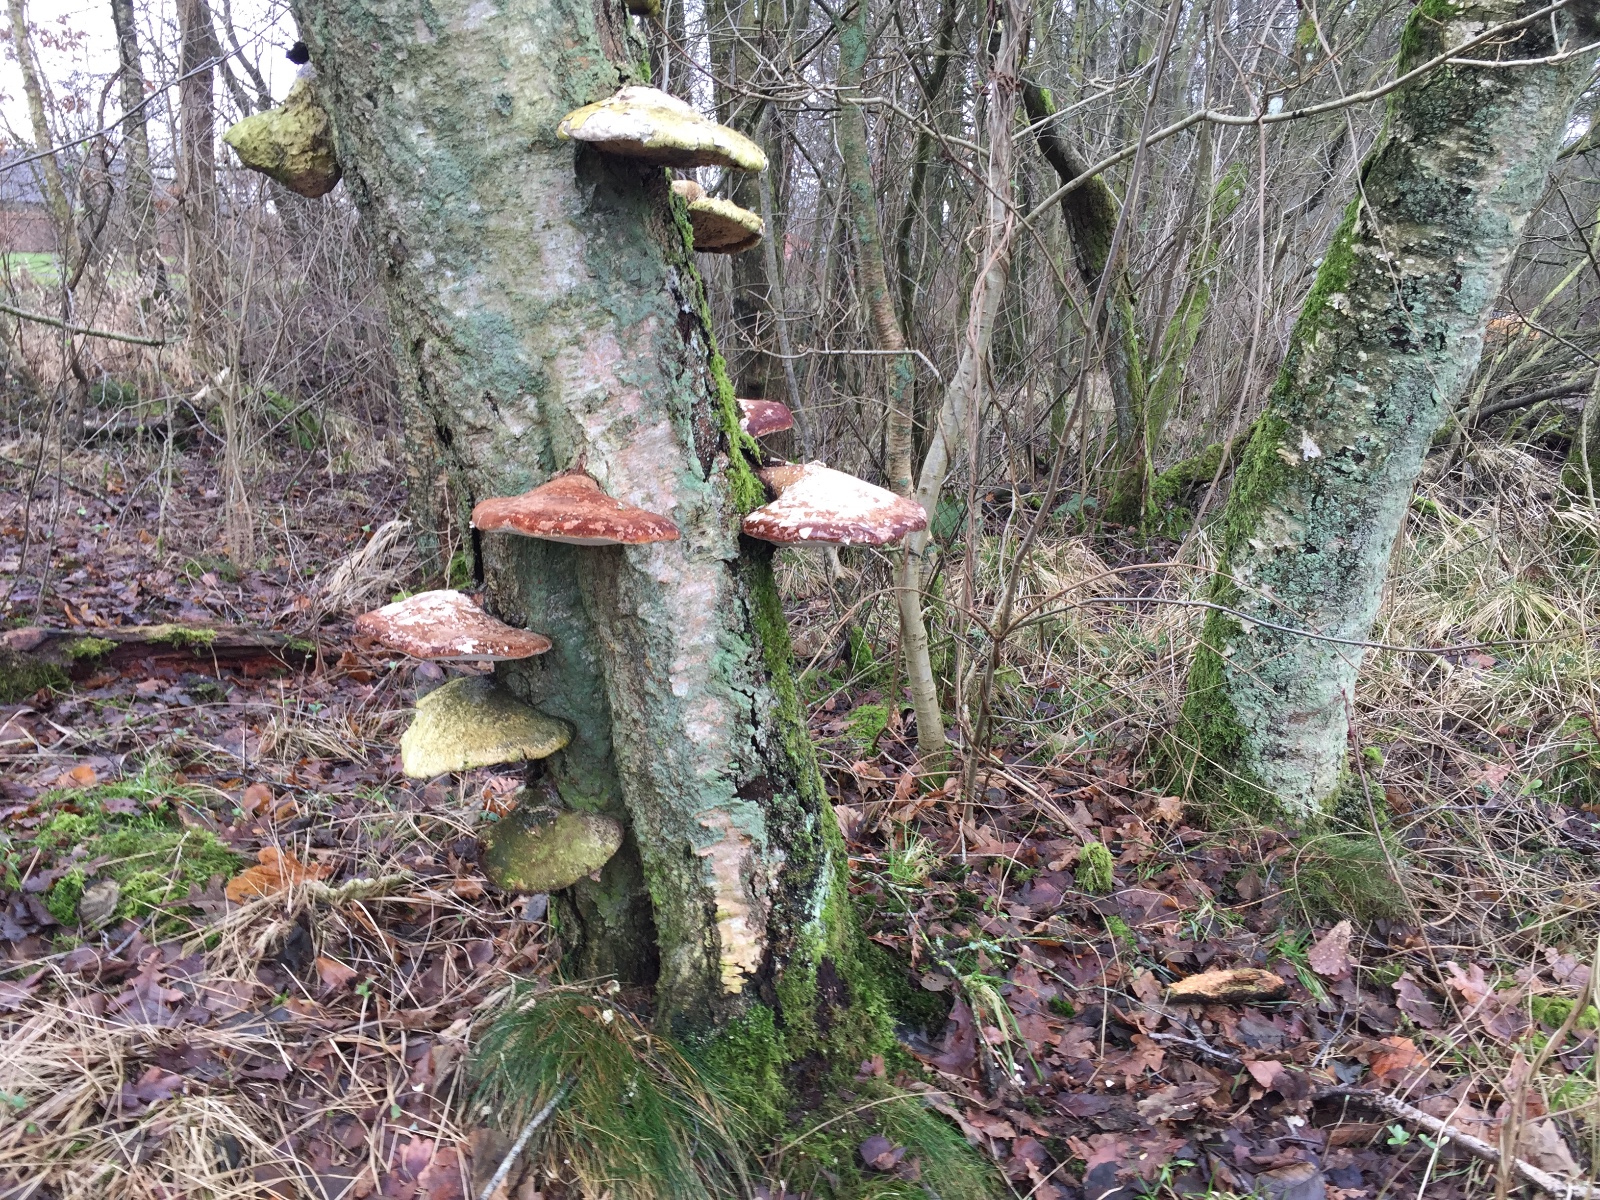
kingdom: Fungi
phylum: Basidiomycota
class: Agaricomycetes
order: Polyporales
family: Fomitopsidaceae
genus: Fomitopsis
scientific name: Fomitopsis betulina
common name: birkeporesvamp
